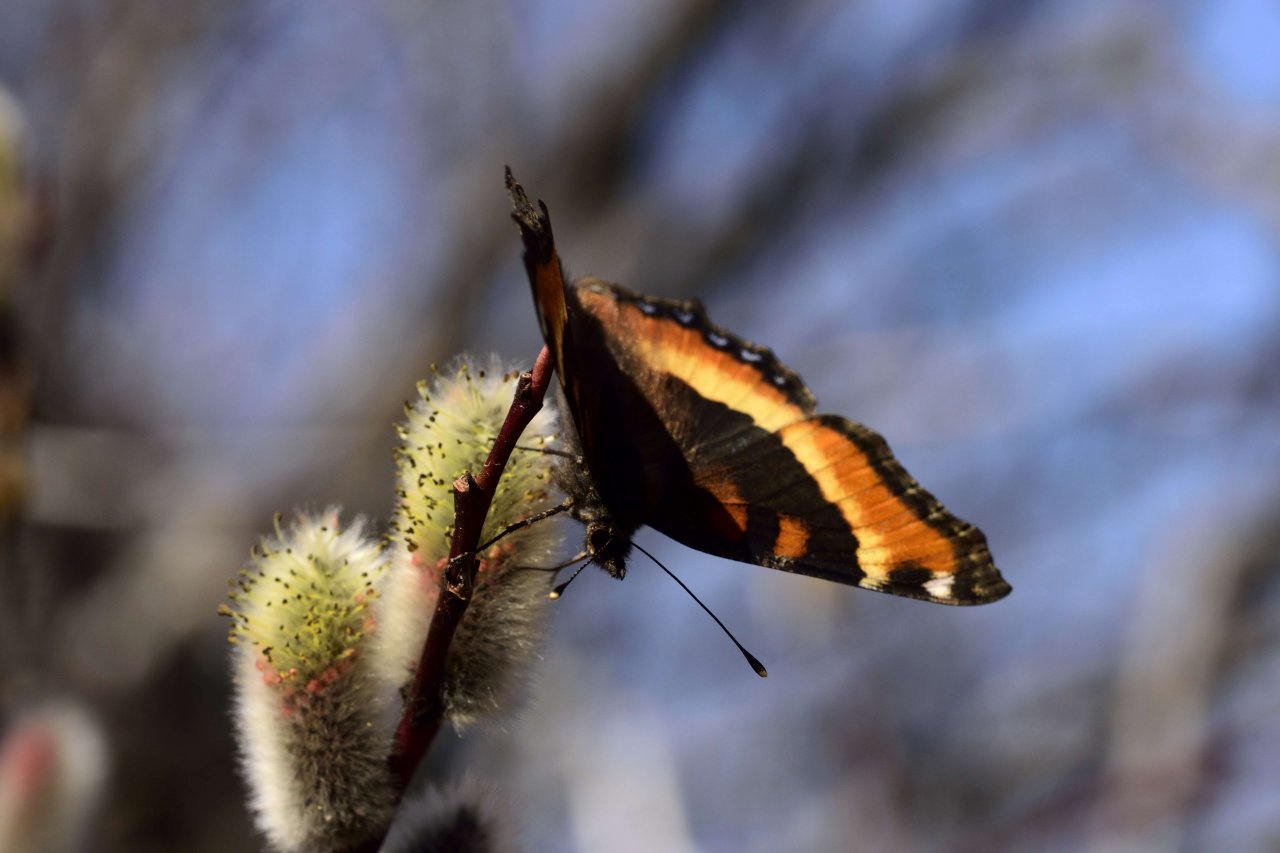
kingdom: Animalia
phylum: Arthropoda
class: Insecta
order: Lepidoptera
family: Nymphalidae
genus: Aglais
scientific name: Aglais milberti
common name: Milbert's Tortoiseshell
